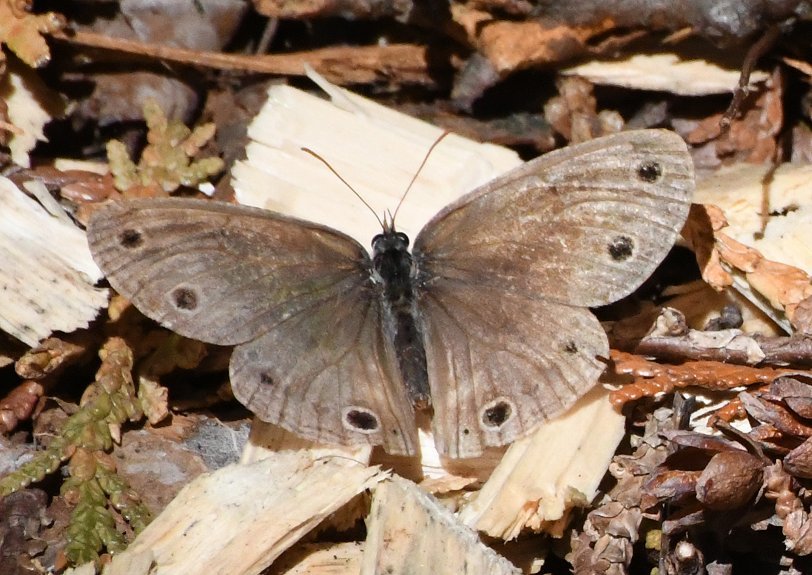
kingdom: Animalia
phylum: Arthropoda
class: Insecta
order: Lepidoptera
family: Nymphalidae
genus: Euptychia
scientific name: Euptychia cymela
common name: Little Wood Satyr
